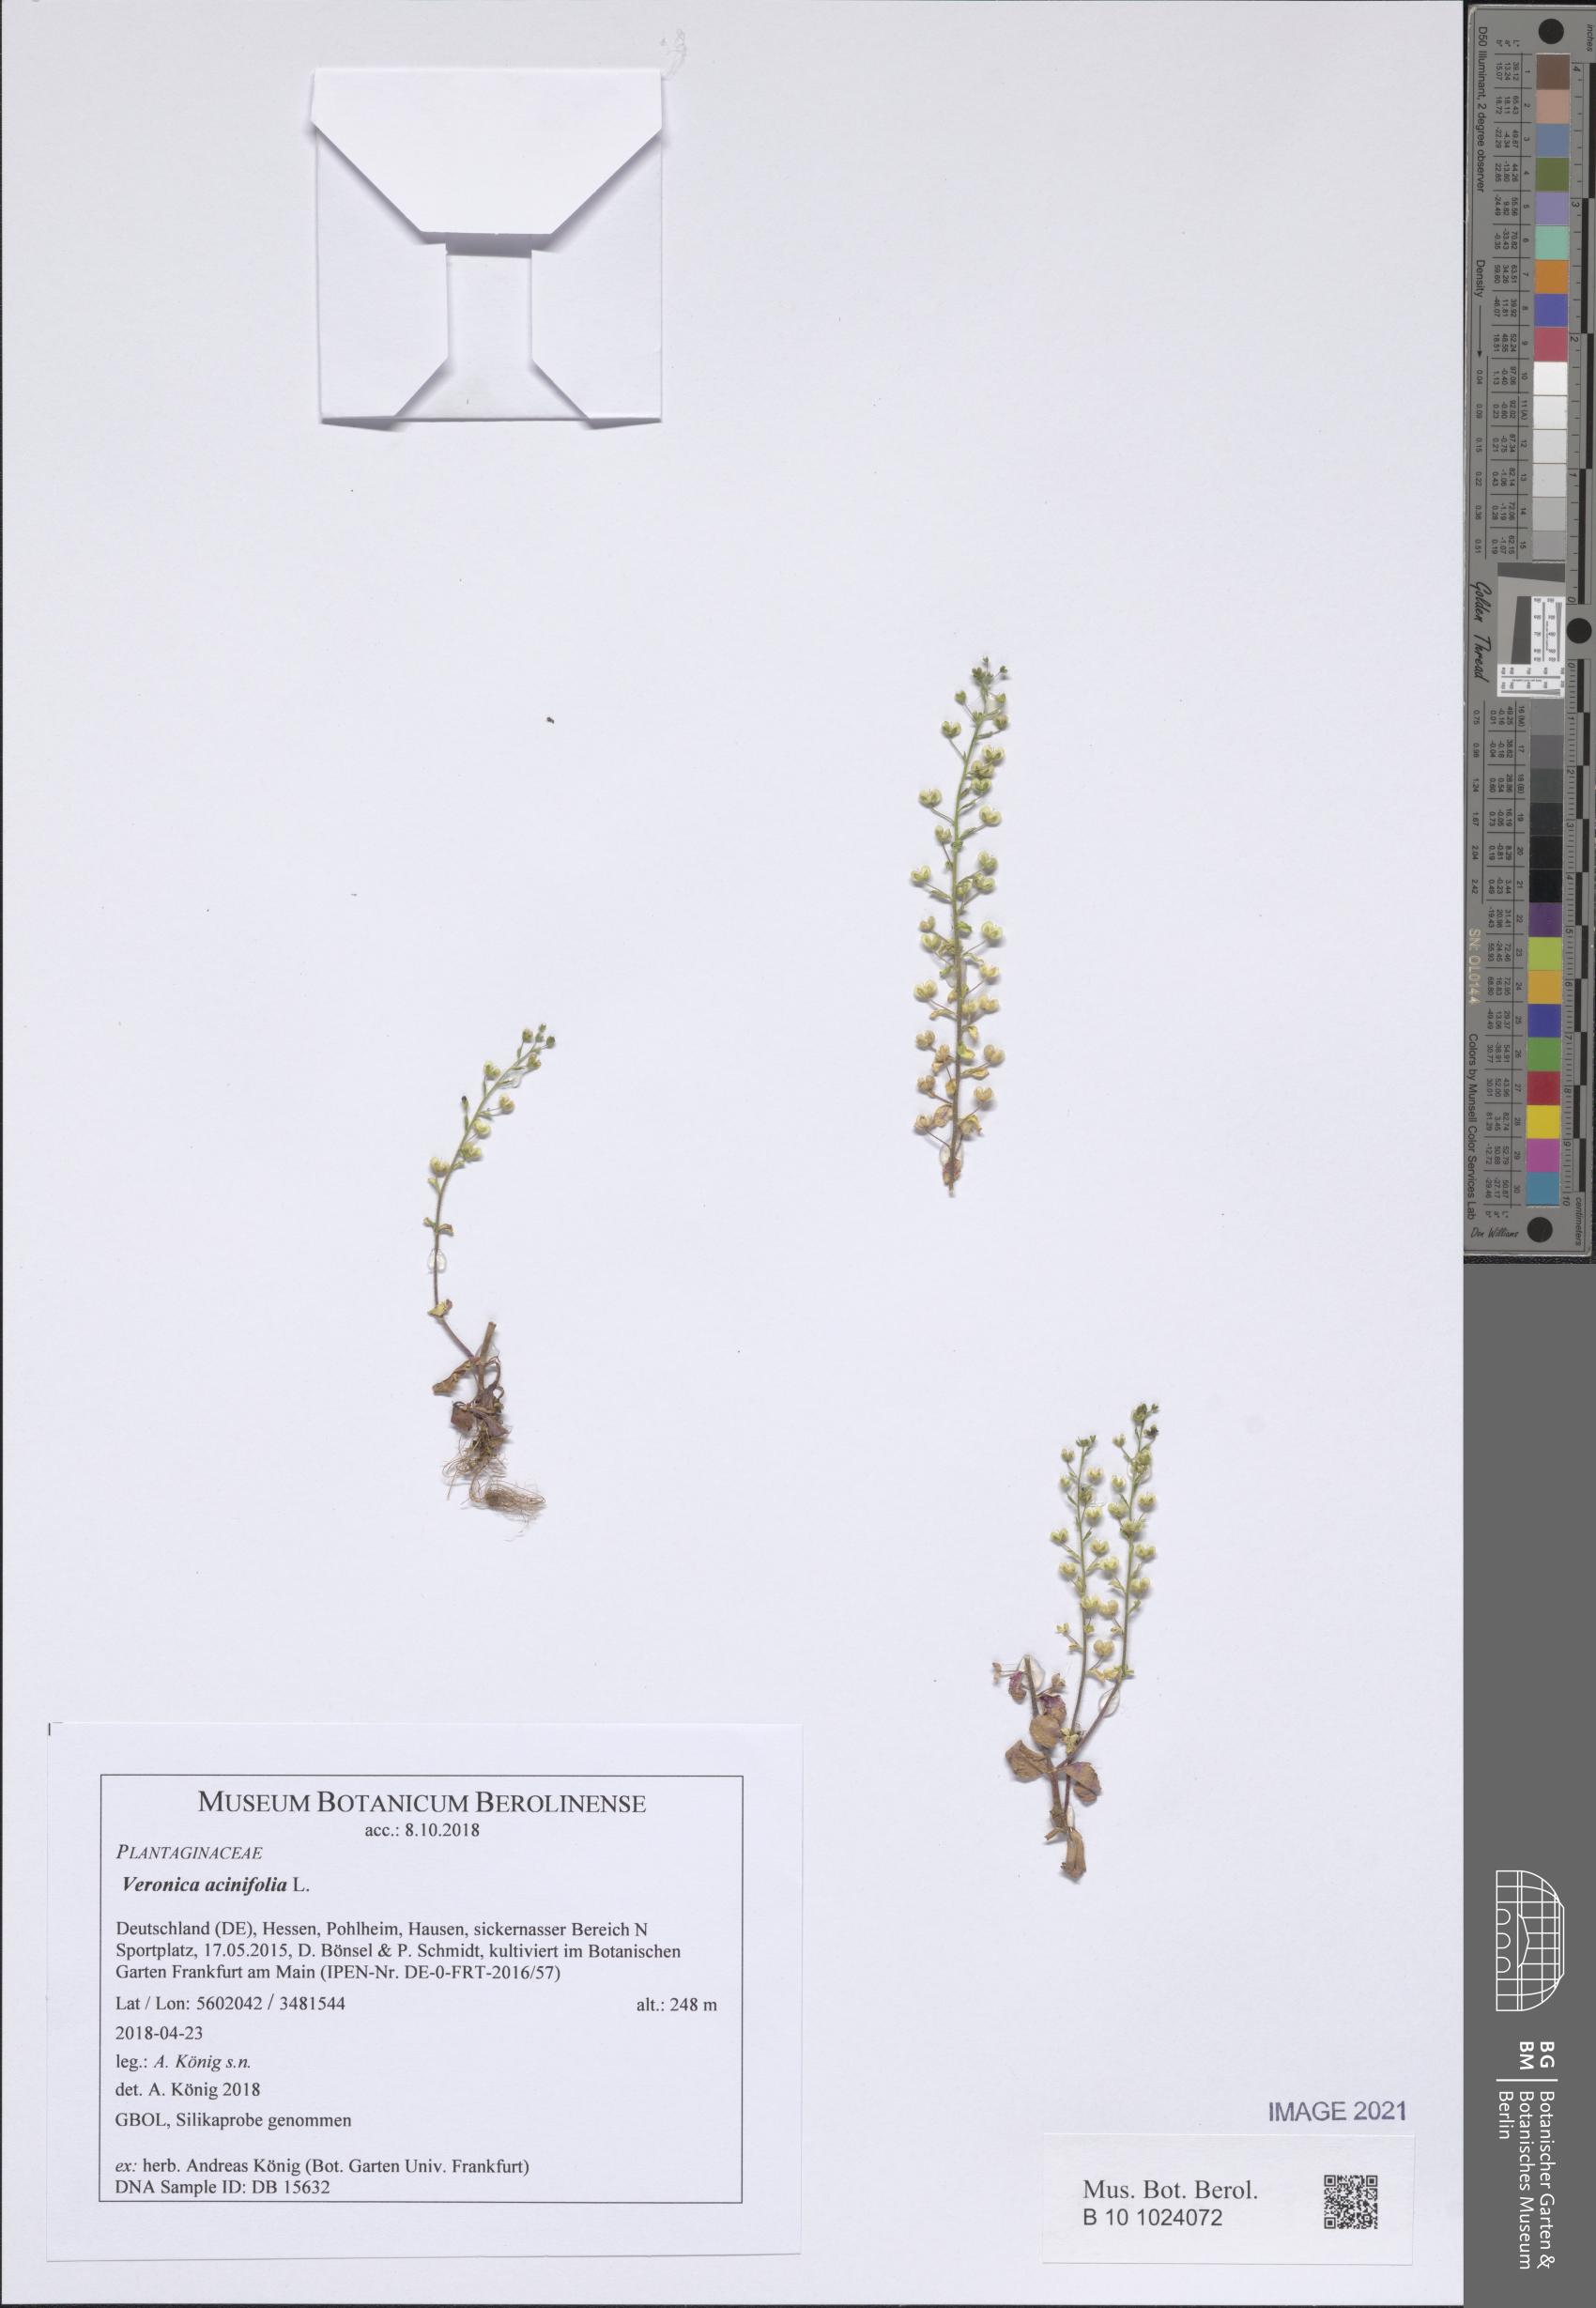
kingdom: Plantae
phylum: Tracheophyta
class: Magnoliopsida
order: Lamiales
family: Plantaginaceae
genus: Veronica
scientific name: Veronica acinifolia
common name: French speedwell
